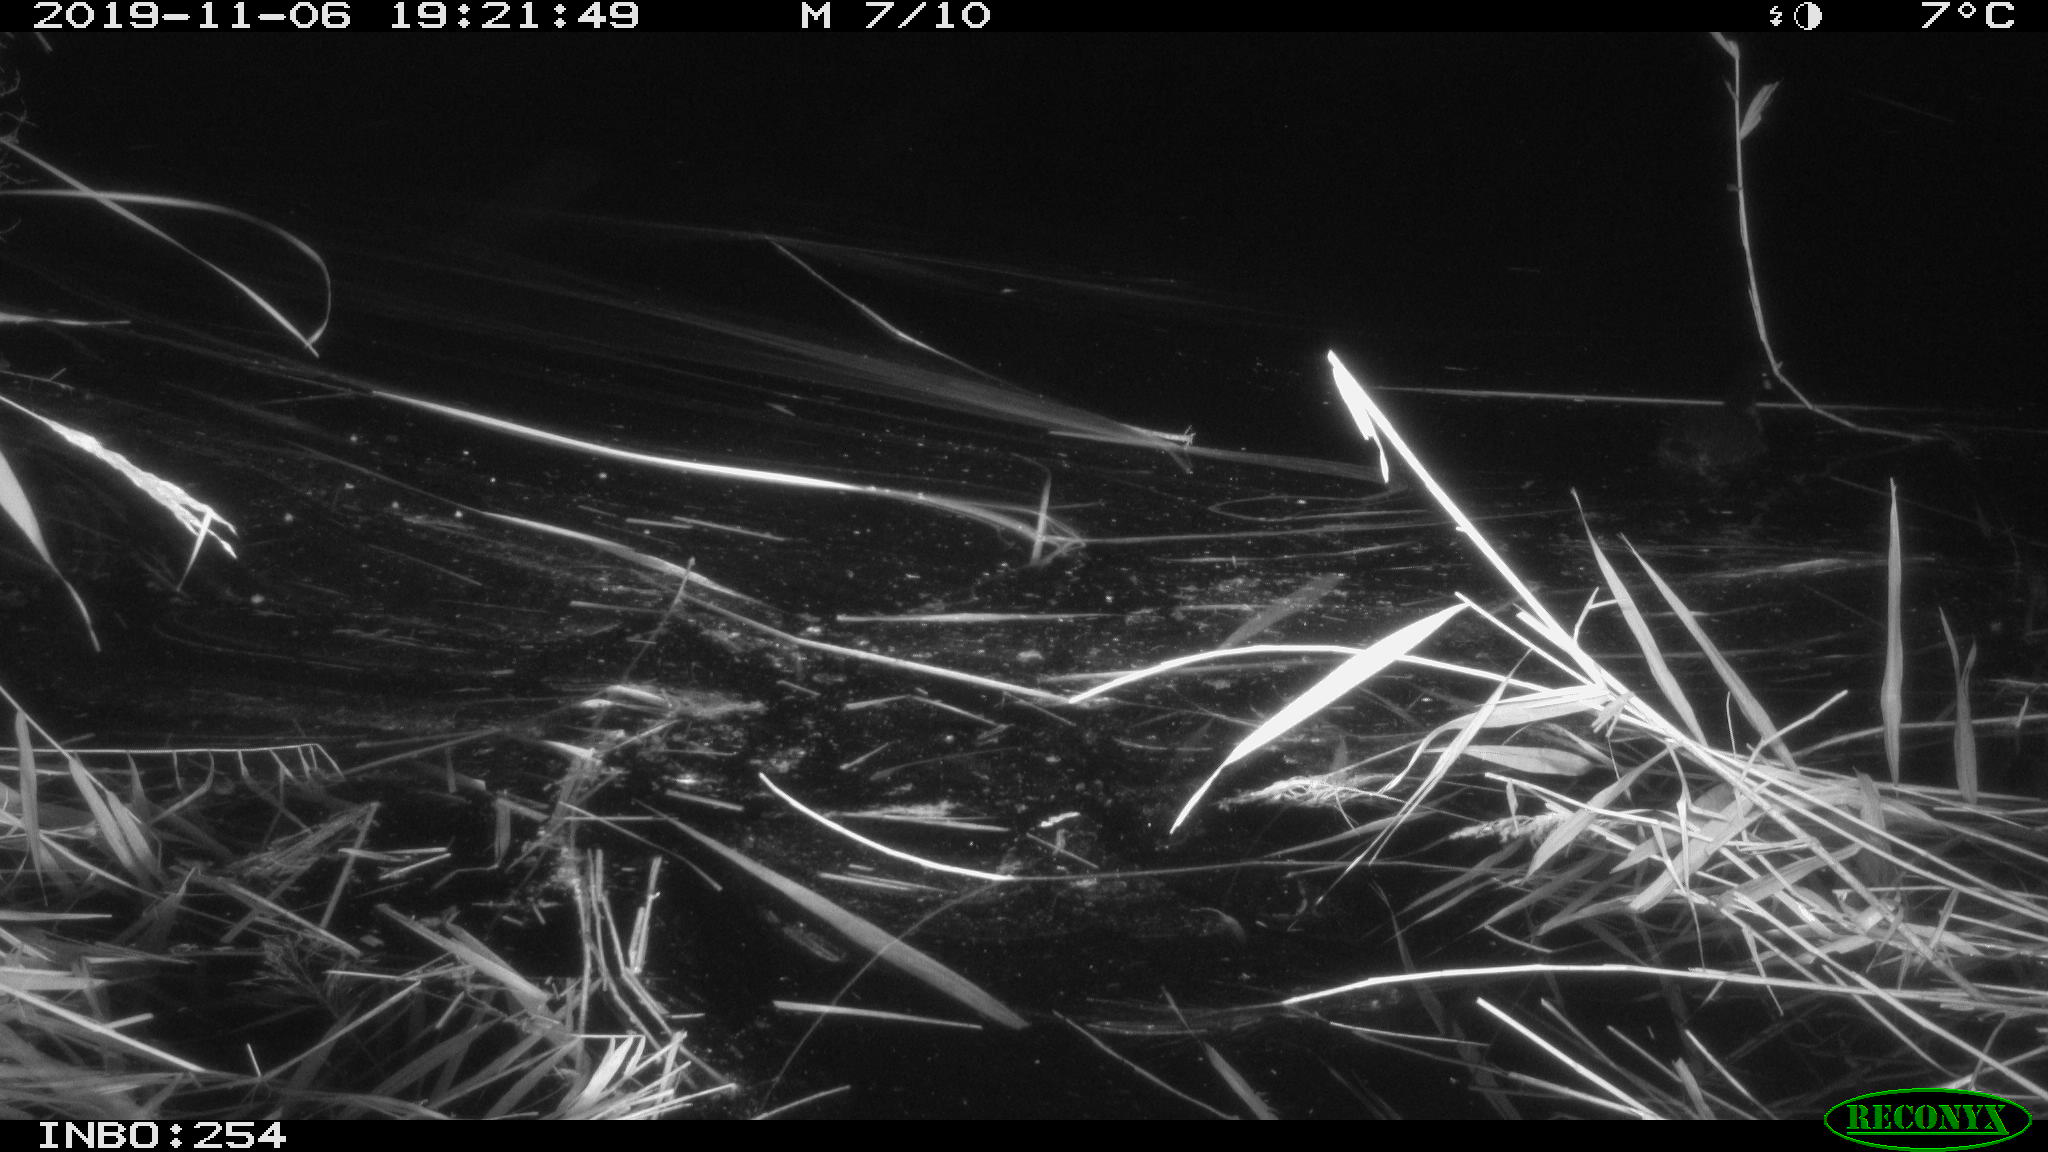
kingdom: Animalia
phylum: Chordata
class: Aves
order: Gruiformes
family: Rallidae
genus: Gallinula
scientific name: Gallinula chloropus
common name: Common moorhen
